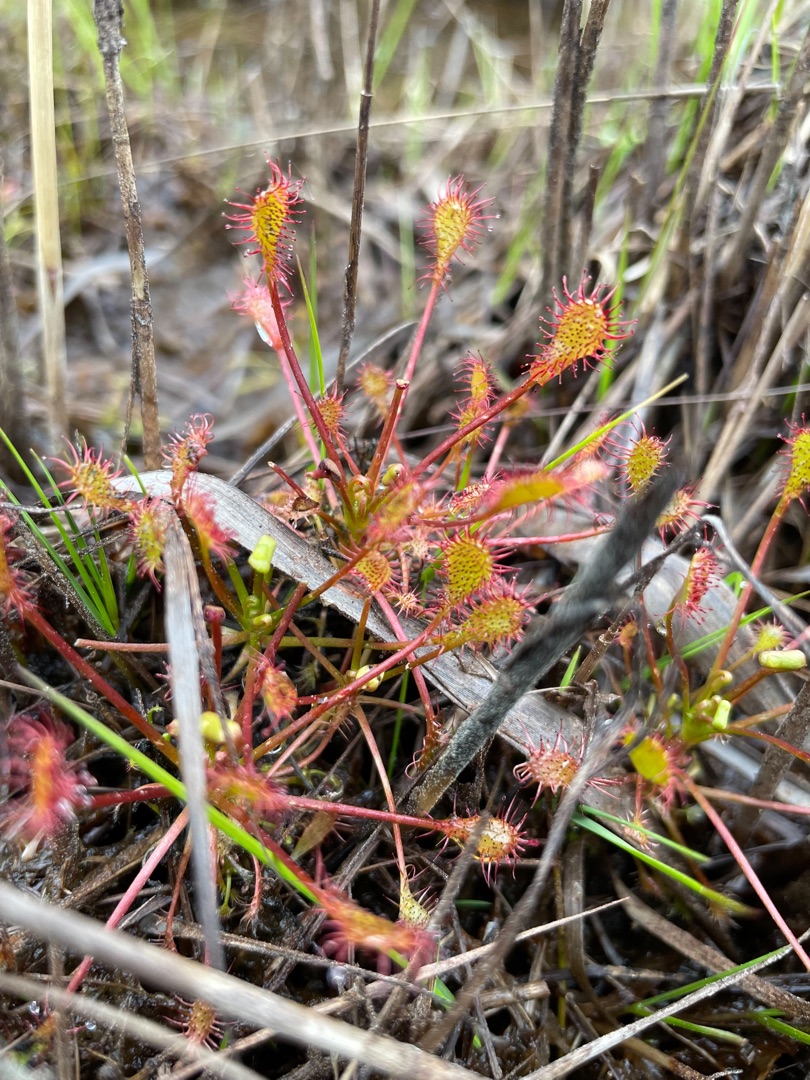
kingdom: Plantae
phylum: Tracheophyta
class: Magnoliopsida
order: Caryophyllales
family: Droseraceae
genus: Drosera
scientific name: Drosera intermedia
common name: Liden soldug
